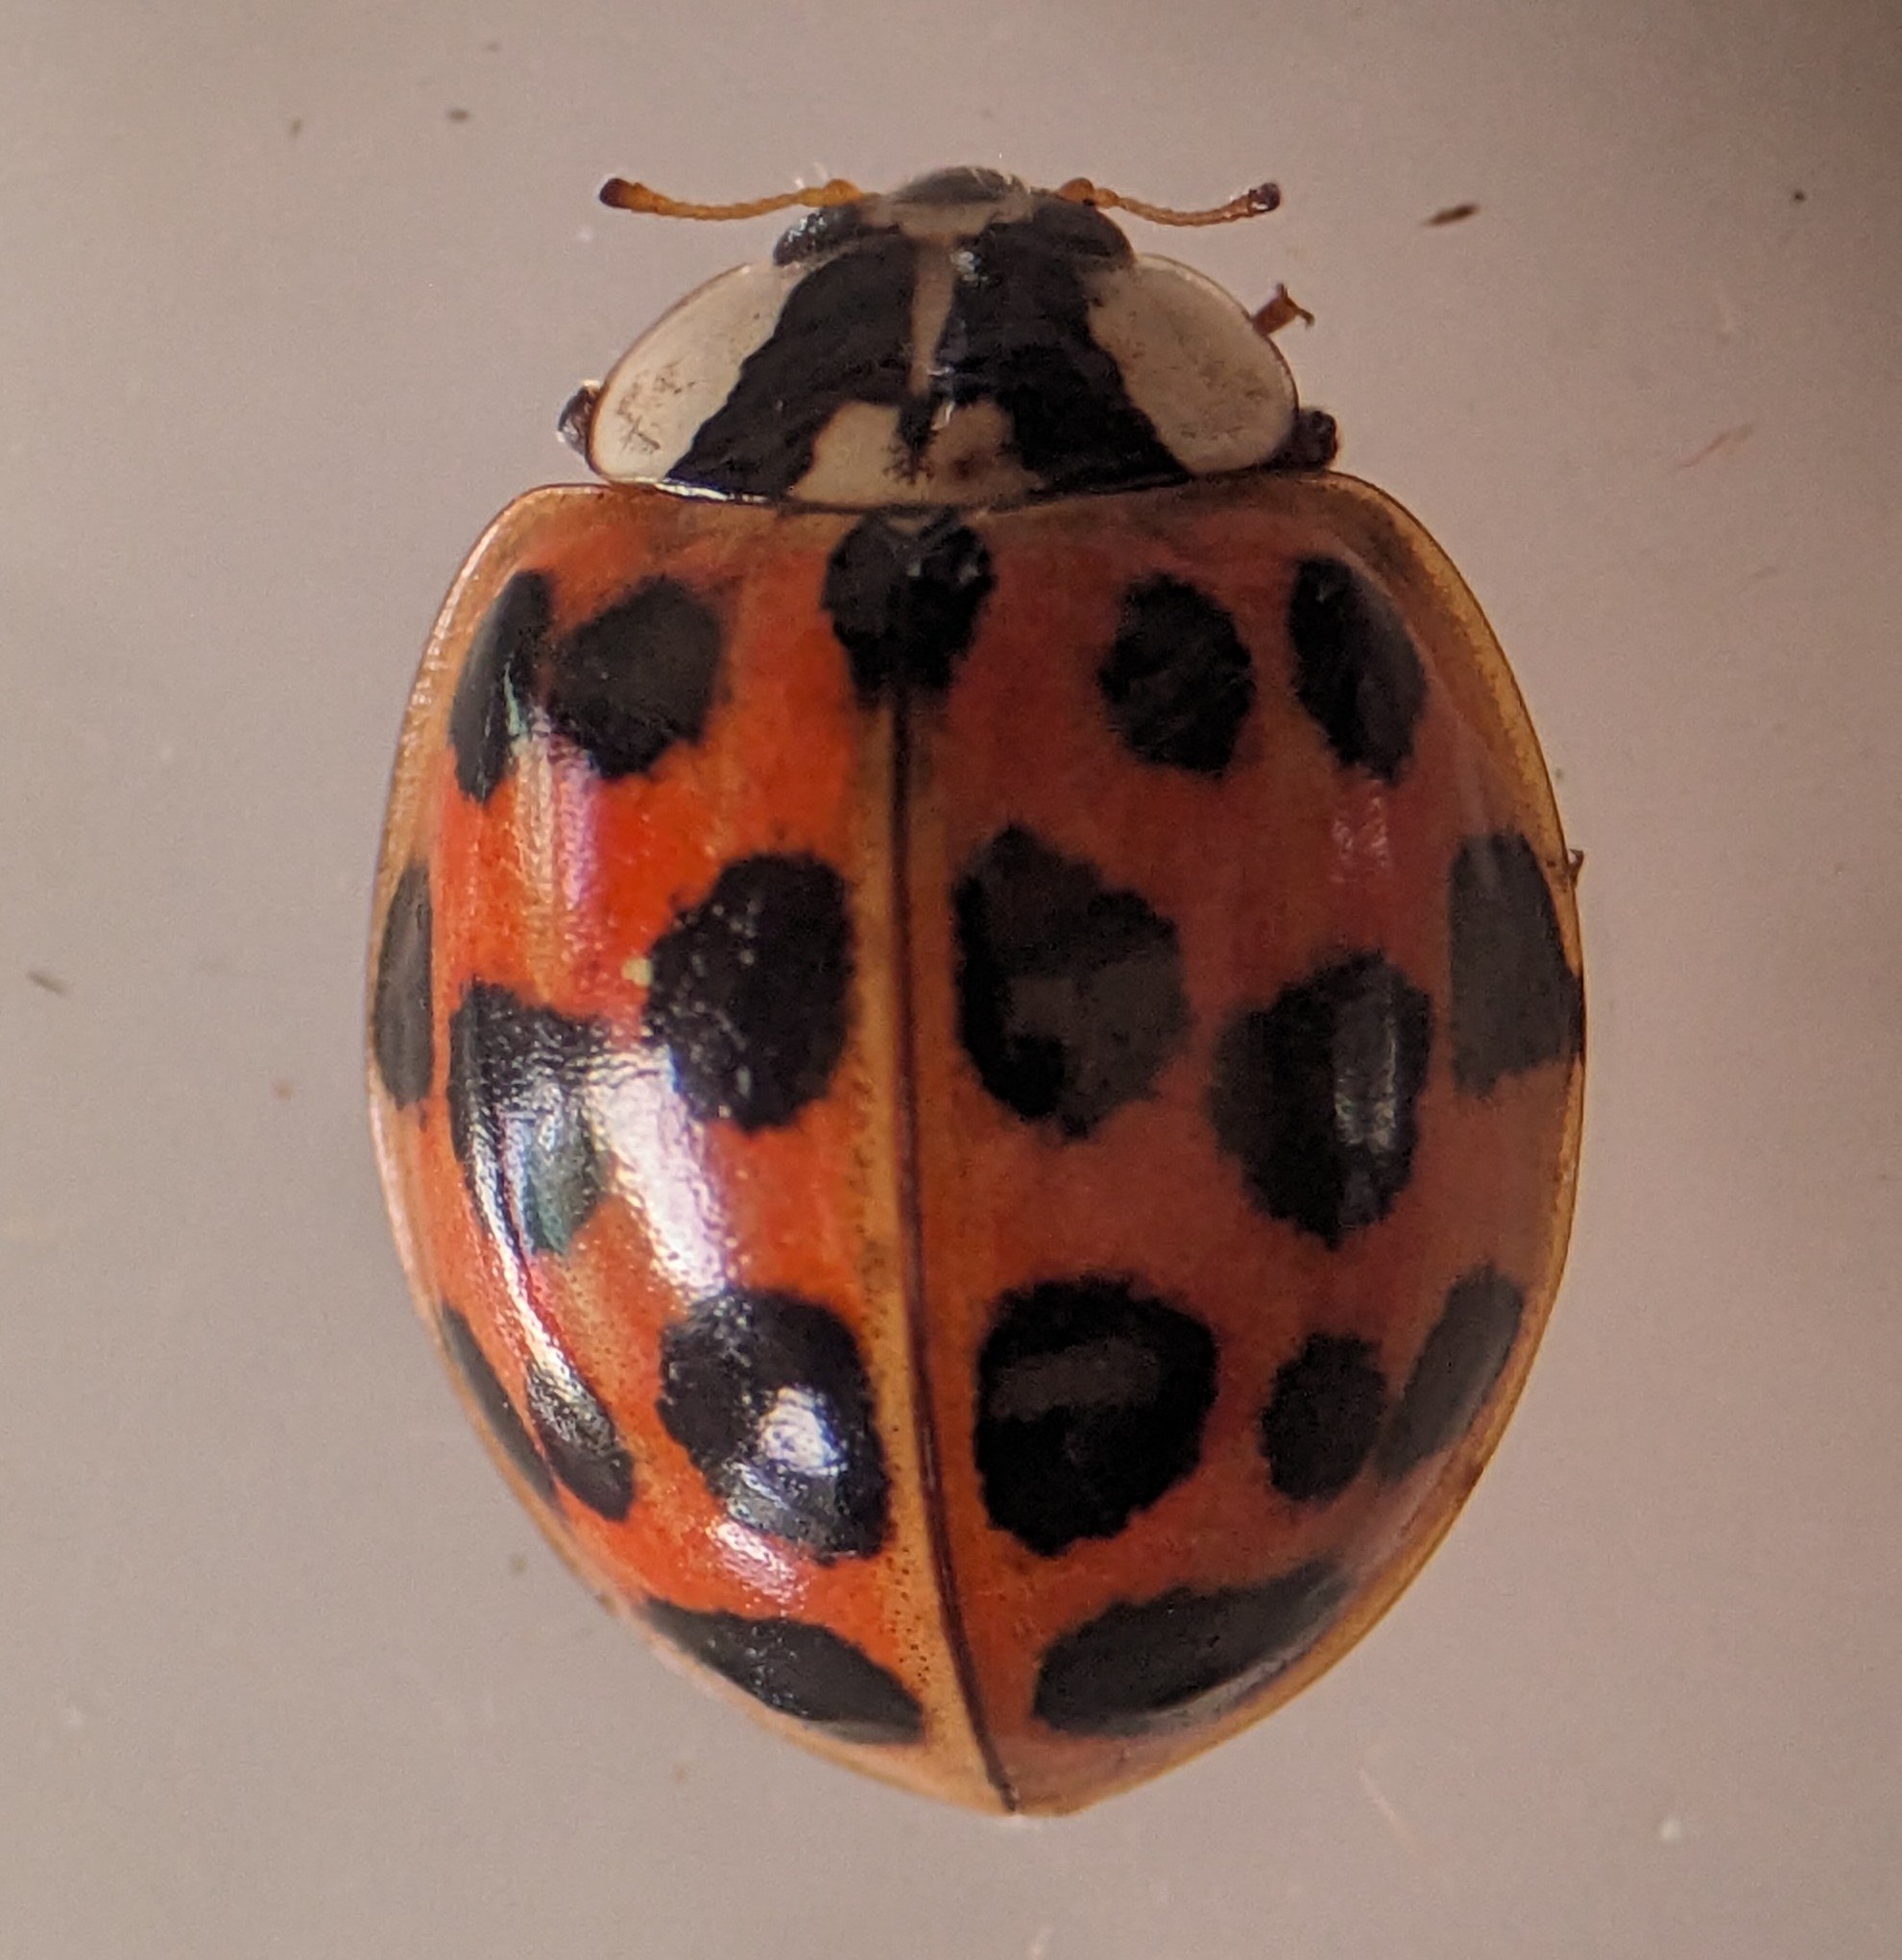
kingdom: Animalia
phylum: Arthropoda
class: Insecta
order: Coleoptera
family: Coccinellidae
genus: Harmonia
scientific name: Harmonia axyridis
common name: Harlekinmariehøne
